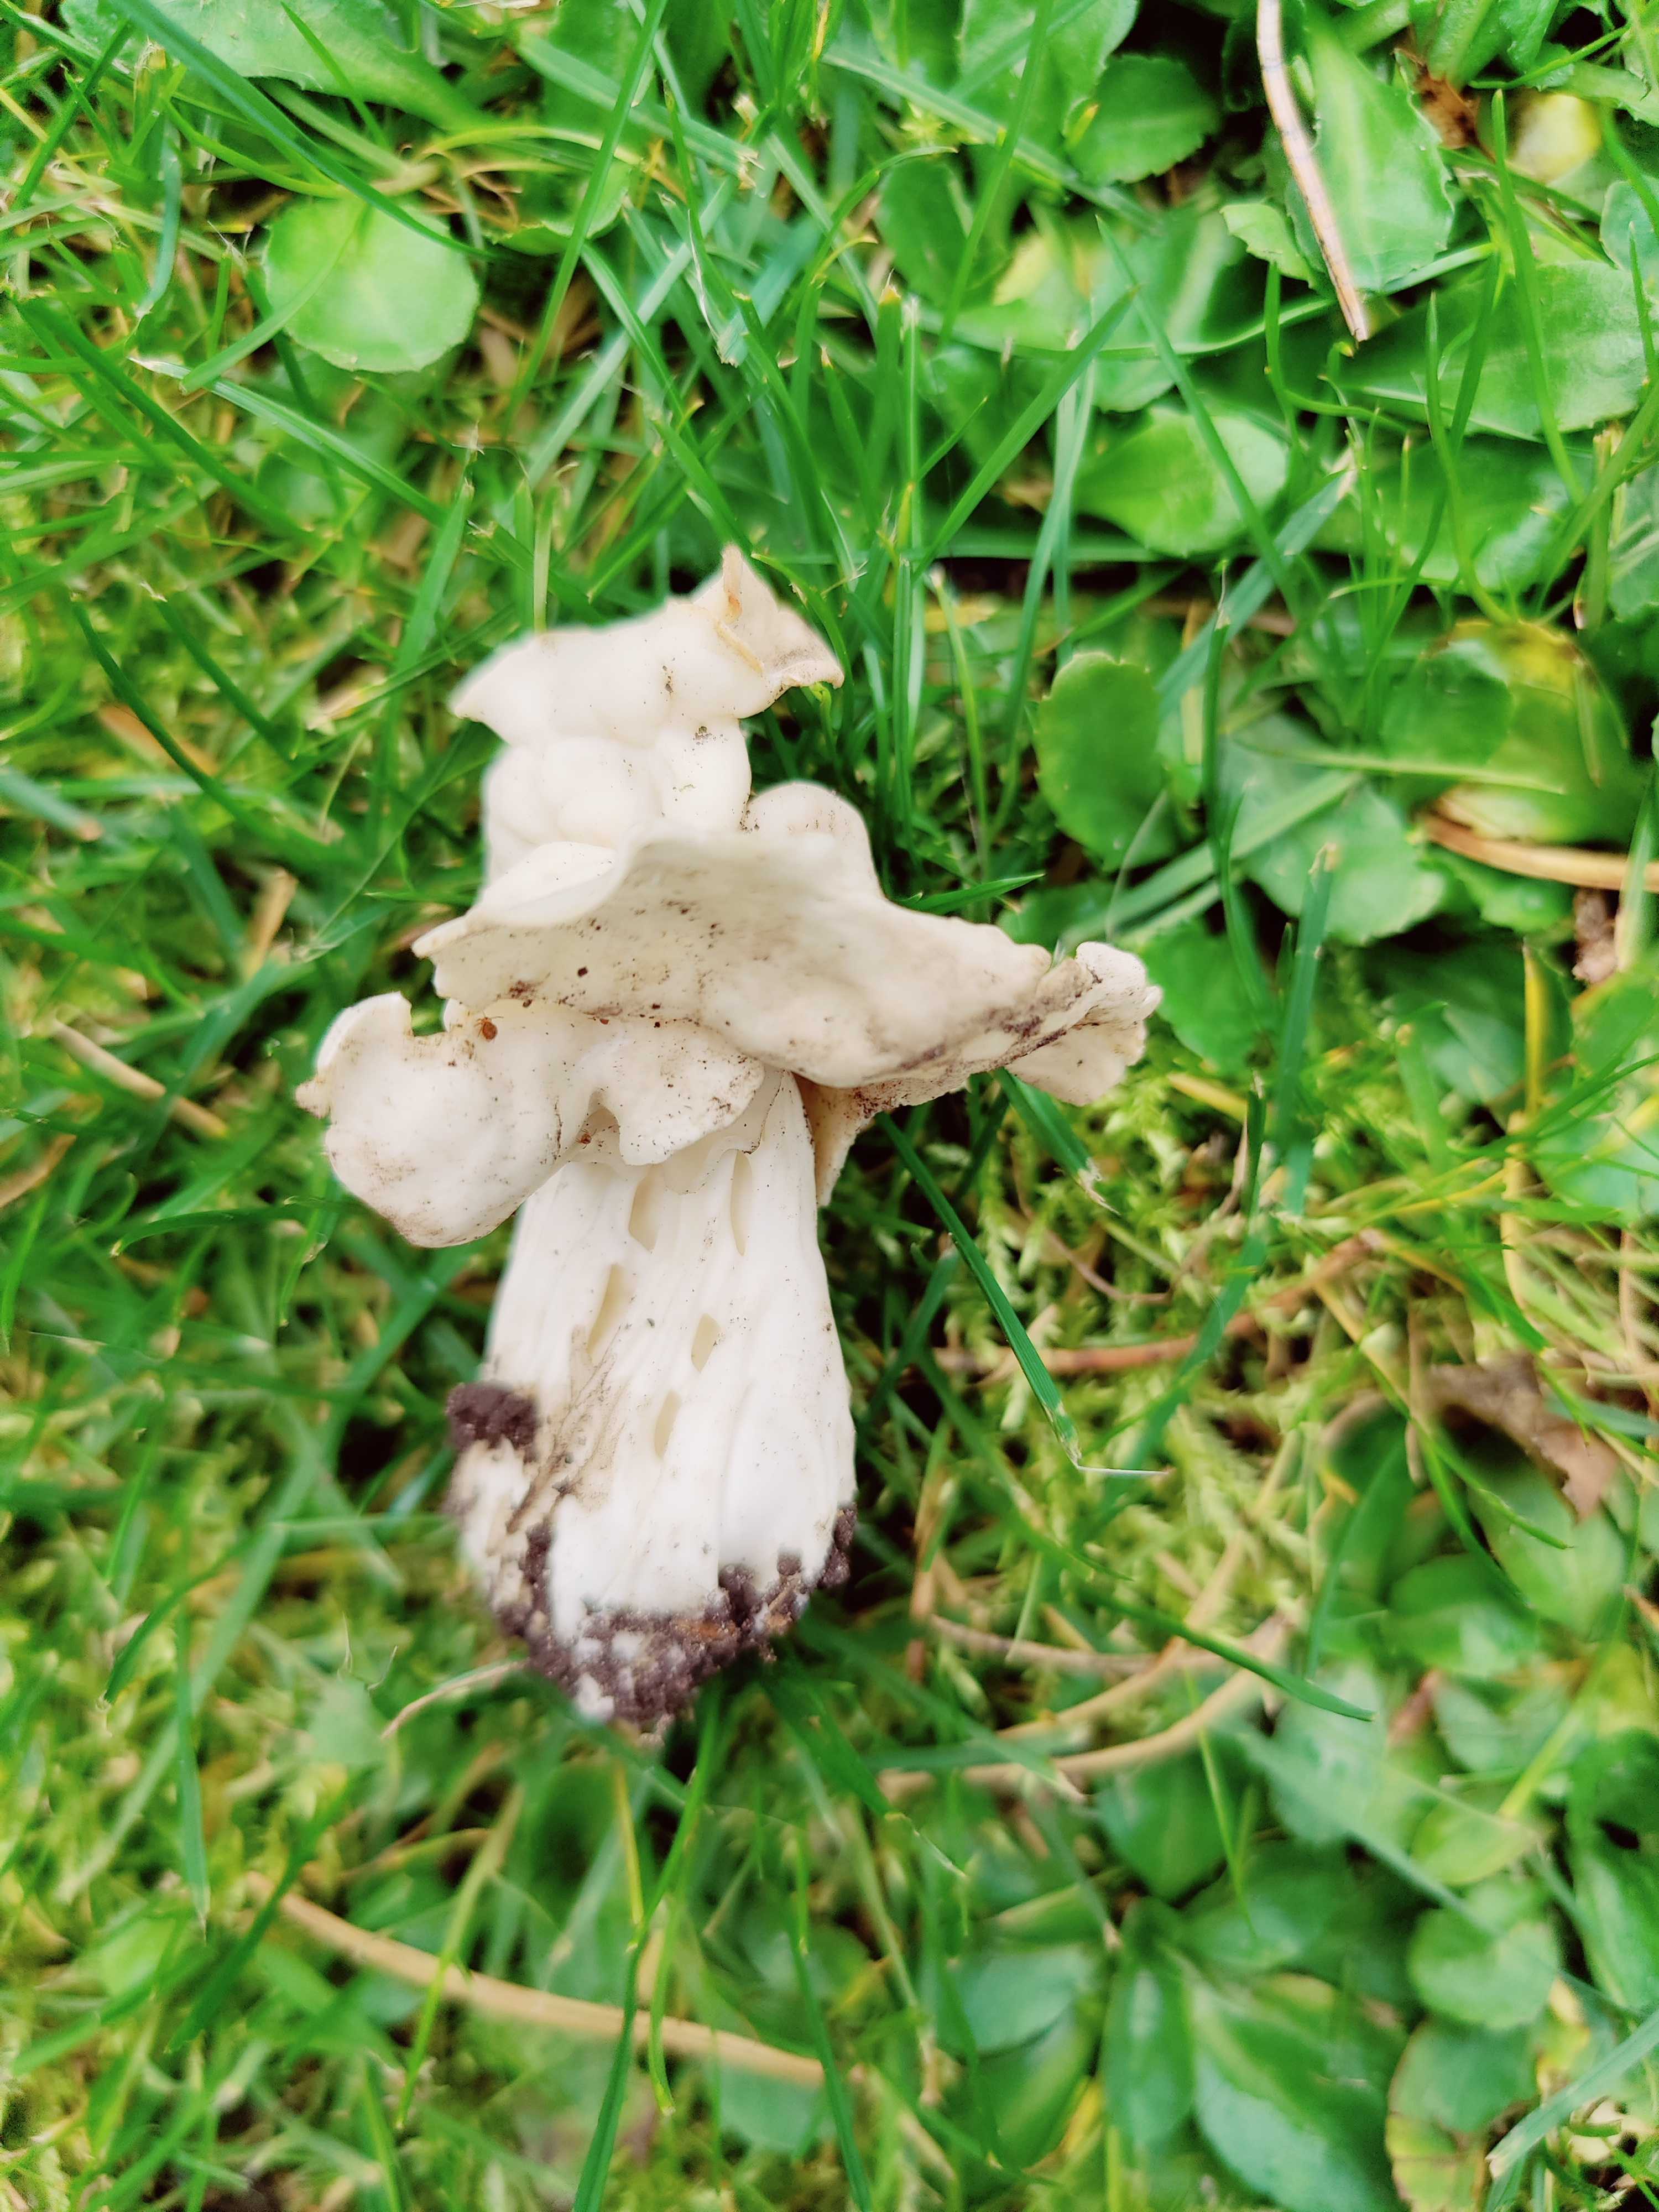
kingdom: Fungi
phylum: Ascomycota
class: Pezizomycetes
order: Pezizales
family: Helvellaceae
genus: Helvella
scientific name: Helvella crispa
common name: kruset foldhat
